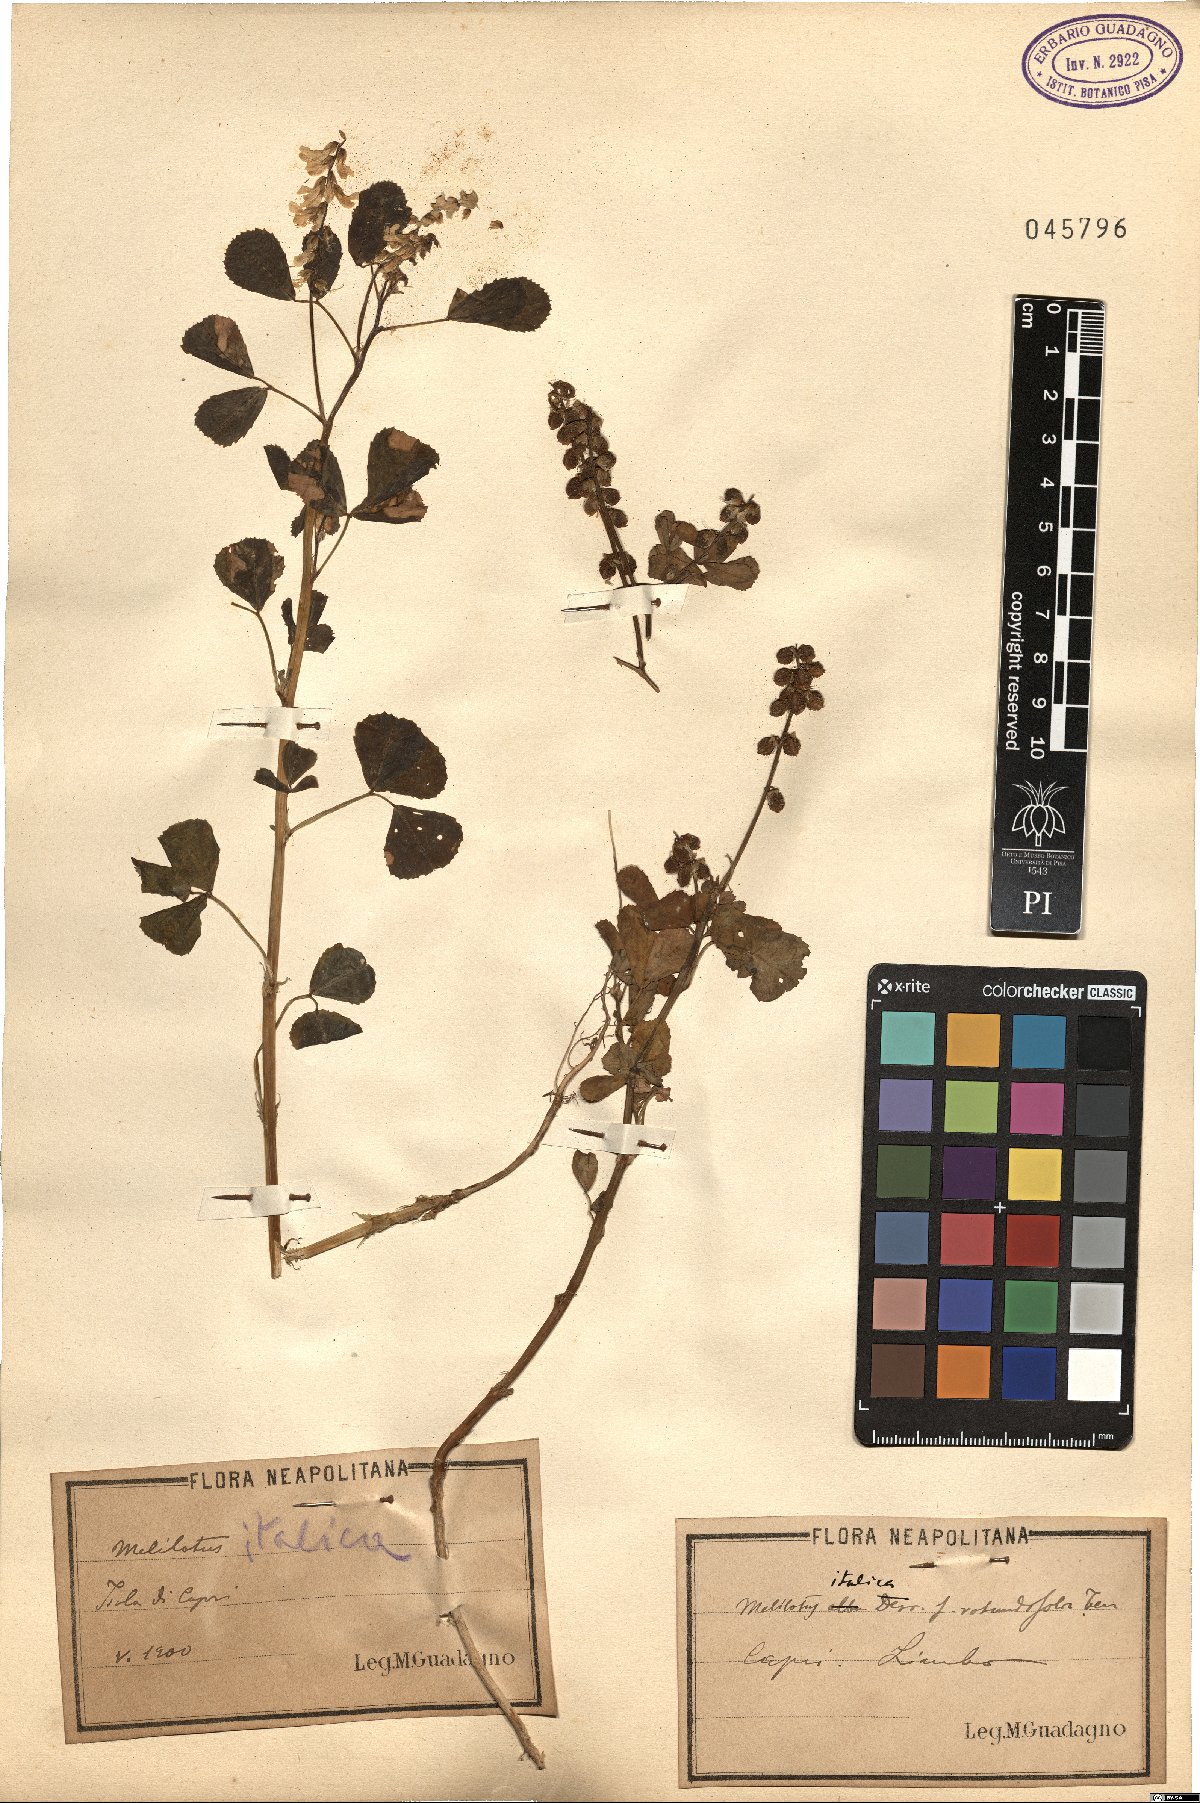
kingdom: Plantae
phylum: Tracheophyta
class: Magnoliopsida
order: Fabales
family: Fabaceae
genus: Melilotus
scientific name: Melilotus italicus
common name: Italian melilot
